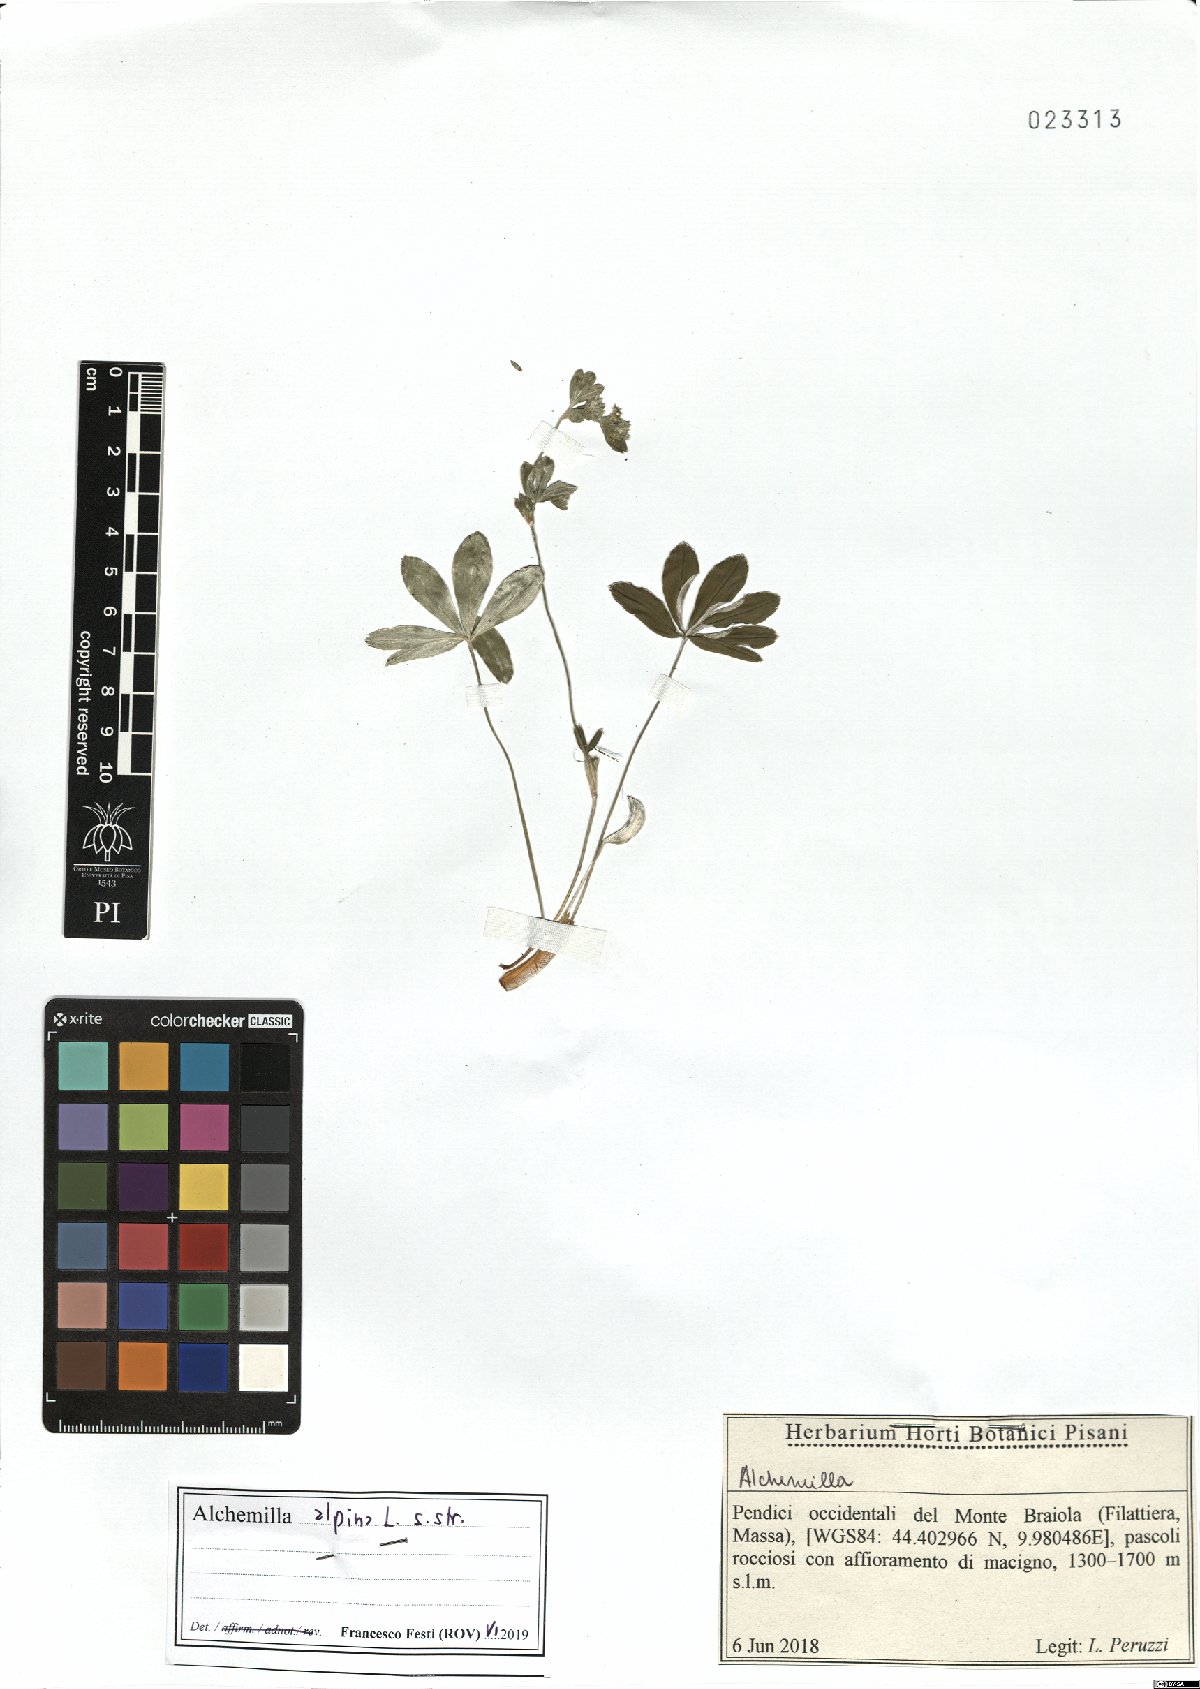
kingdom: Plantae
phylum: Tracheophyta
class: Magnoliopsida
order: Rosales
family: Rosaceae
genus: Alchemilla
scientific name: Alchemilla alpina
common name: Alpine lady's-mantle
